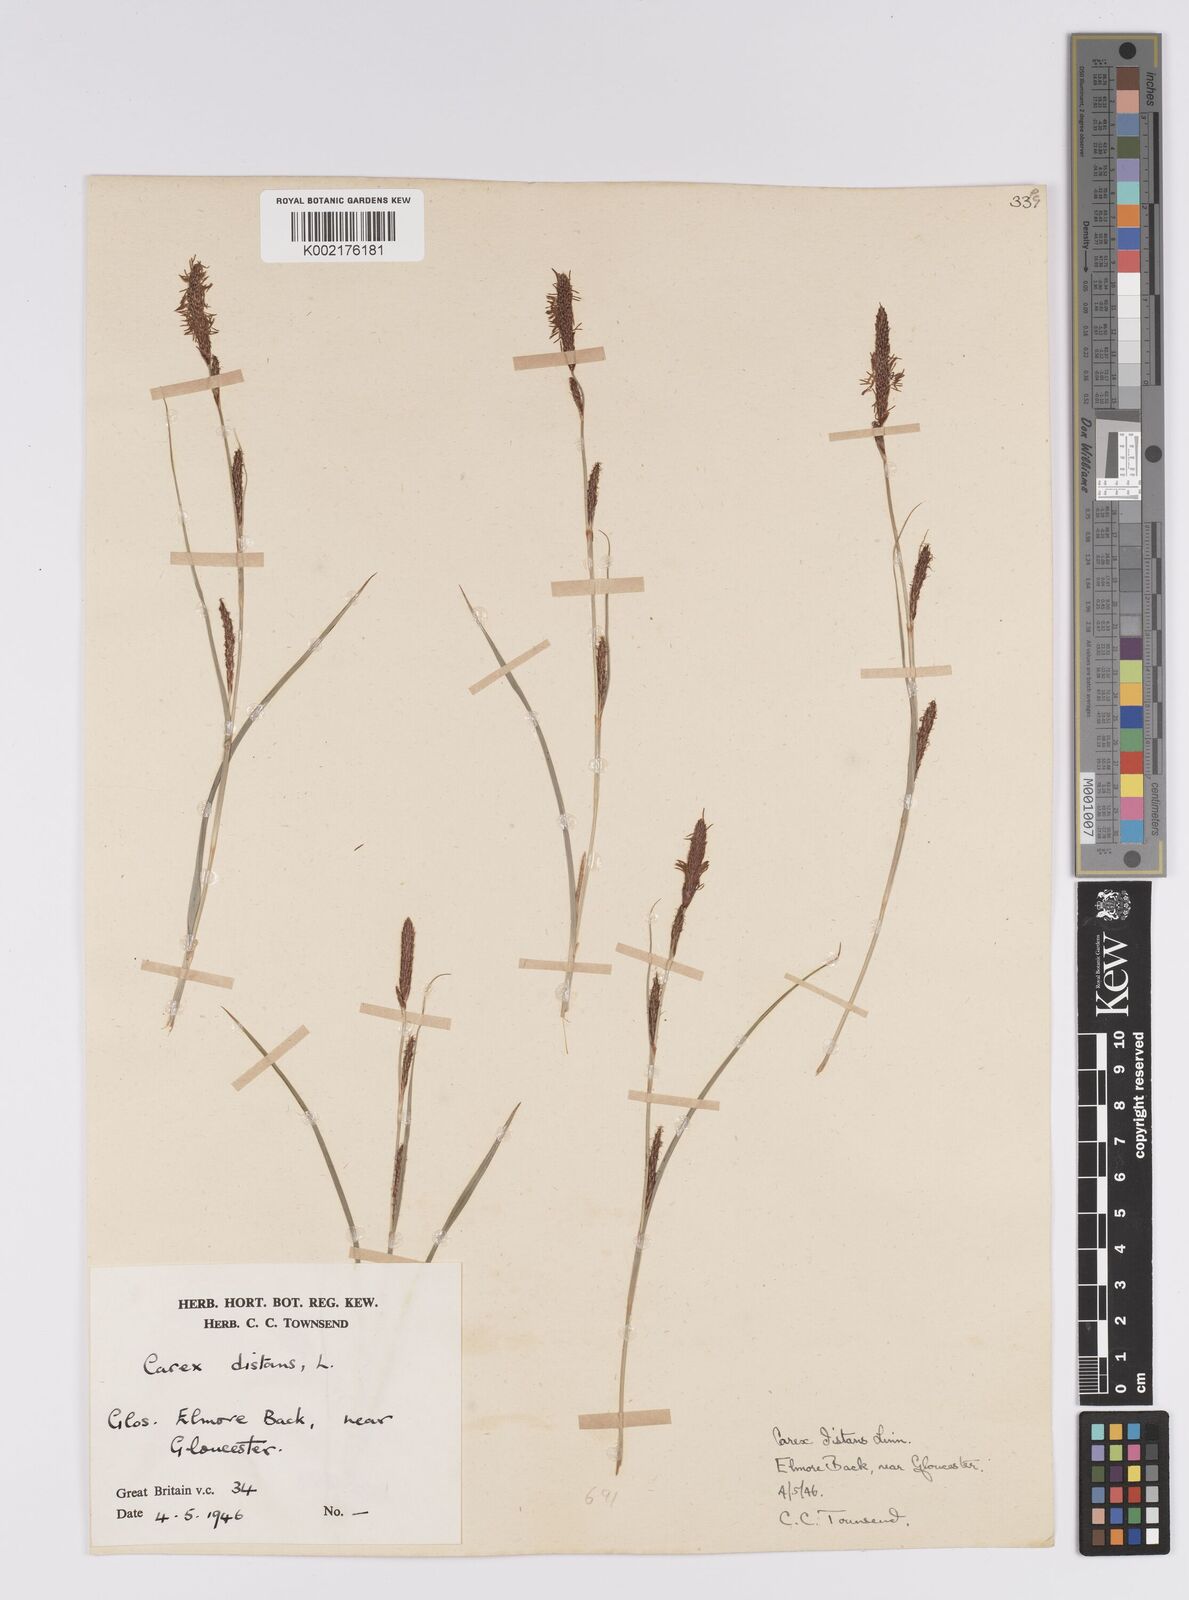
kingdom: Plantae
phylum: Tracheophyta
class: Liliopsida
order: Poales
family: Cyperaceae
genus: Carex
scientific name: Carex distans
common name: Distant sedge
